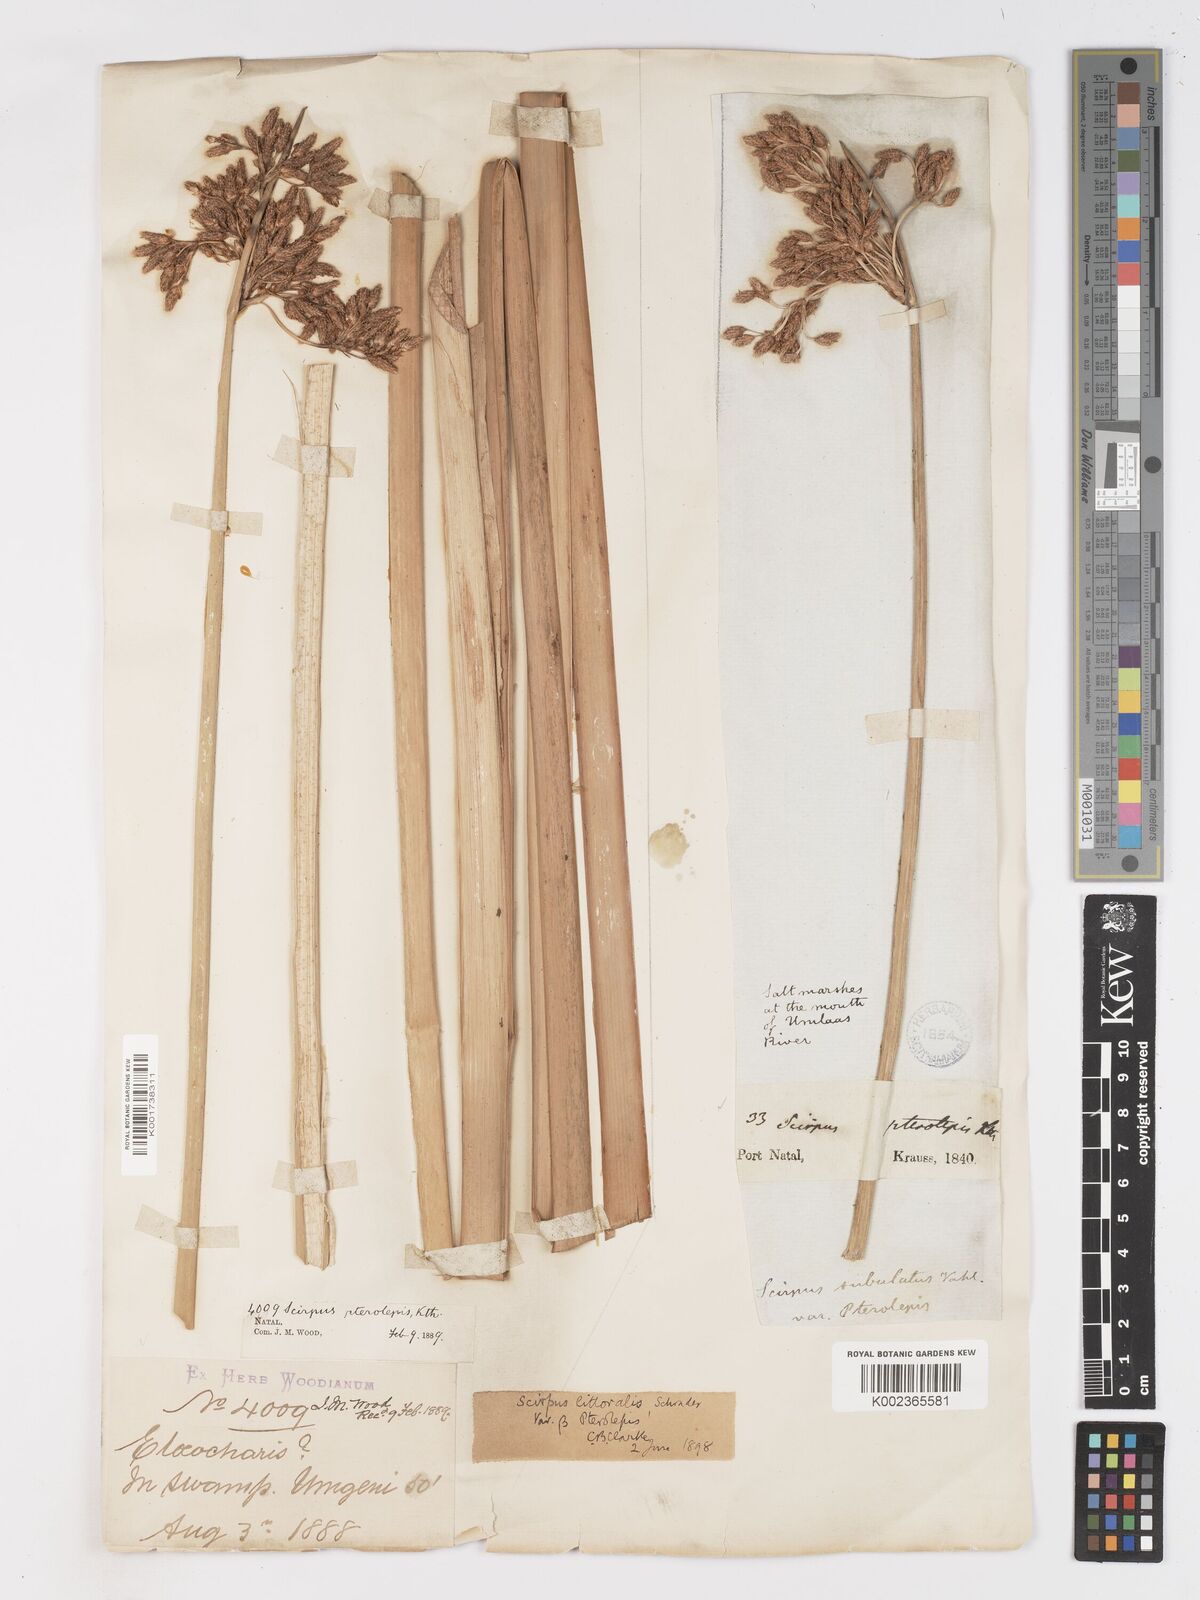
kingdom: Plantae
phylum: Tracheophyta
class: Liliopsida
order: Poales
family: Cyperaceae
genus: Schoenoplectus
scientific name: Schoenoplectus litoralis
